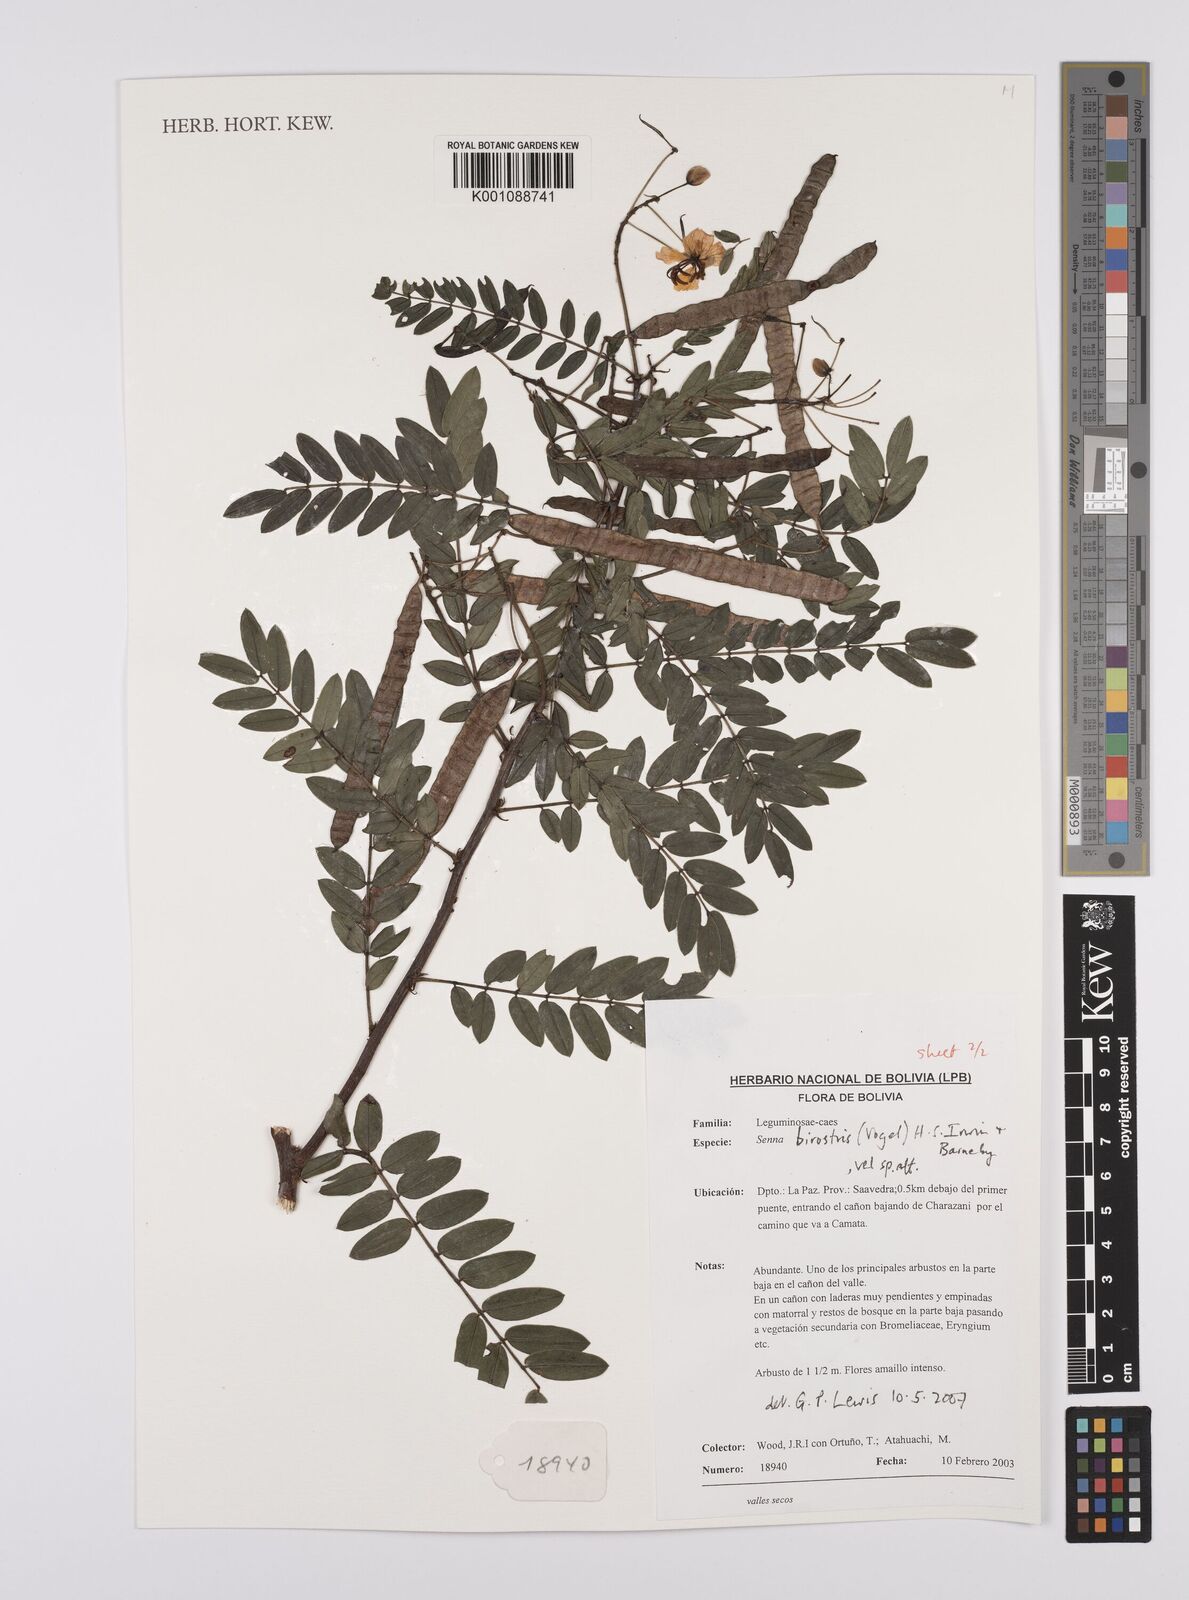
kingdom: Plantae
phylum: Tracheophyta
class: Magnoliopsida
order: Fabales
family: Fabaceae
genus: Senna
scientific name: Senna birostris
